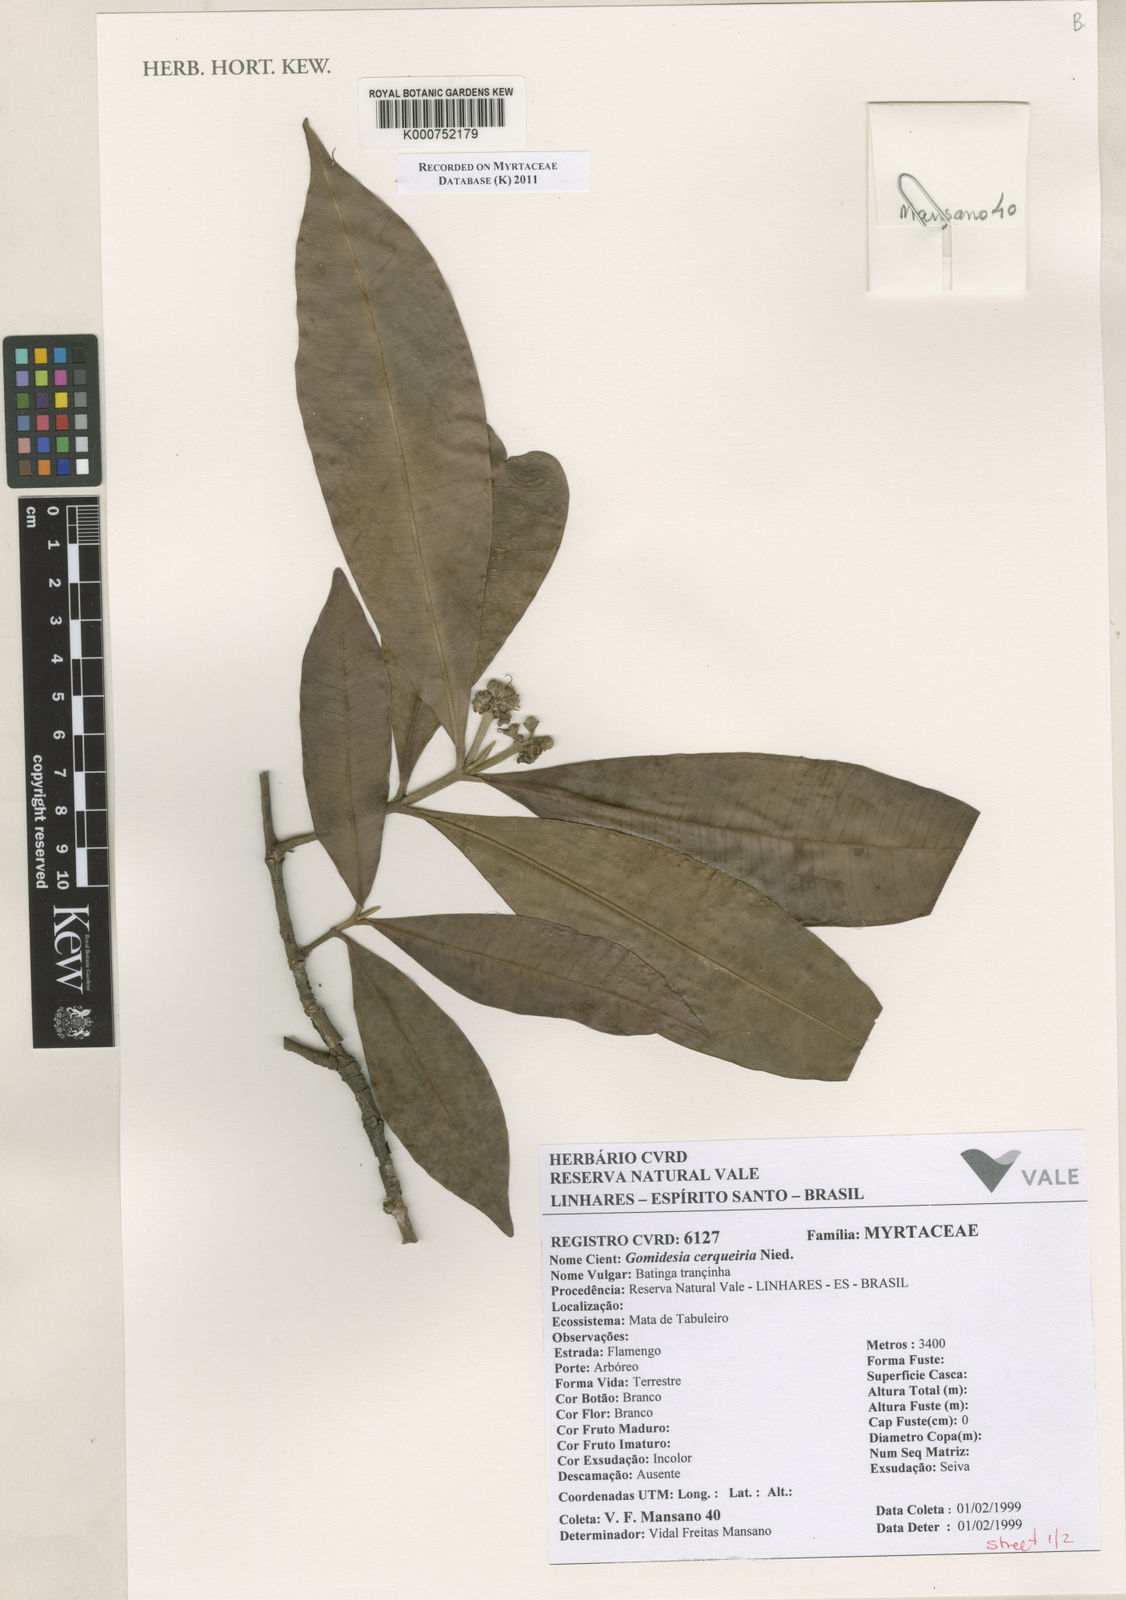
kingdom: Plantae
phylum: Tracheophyta
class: Magnoliopsida
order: Myrtales
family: Myrtaceae
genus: Myrcia
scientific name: Myrcia cerqueiria
